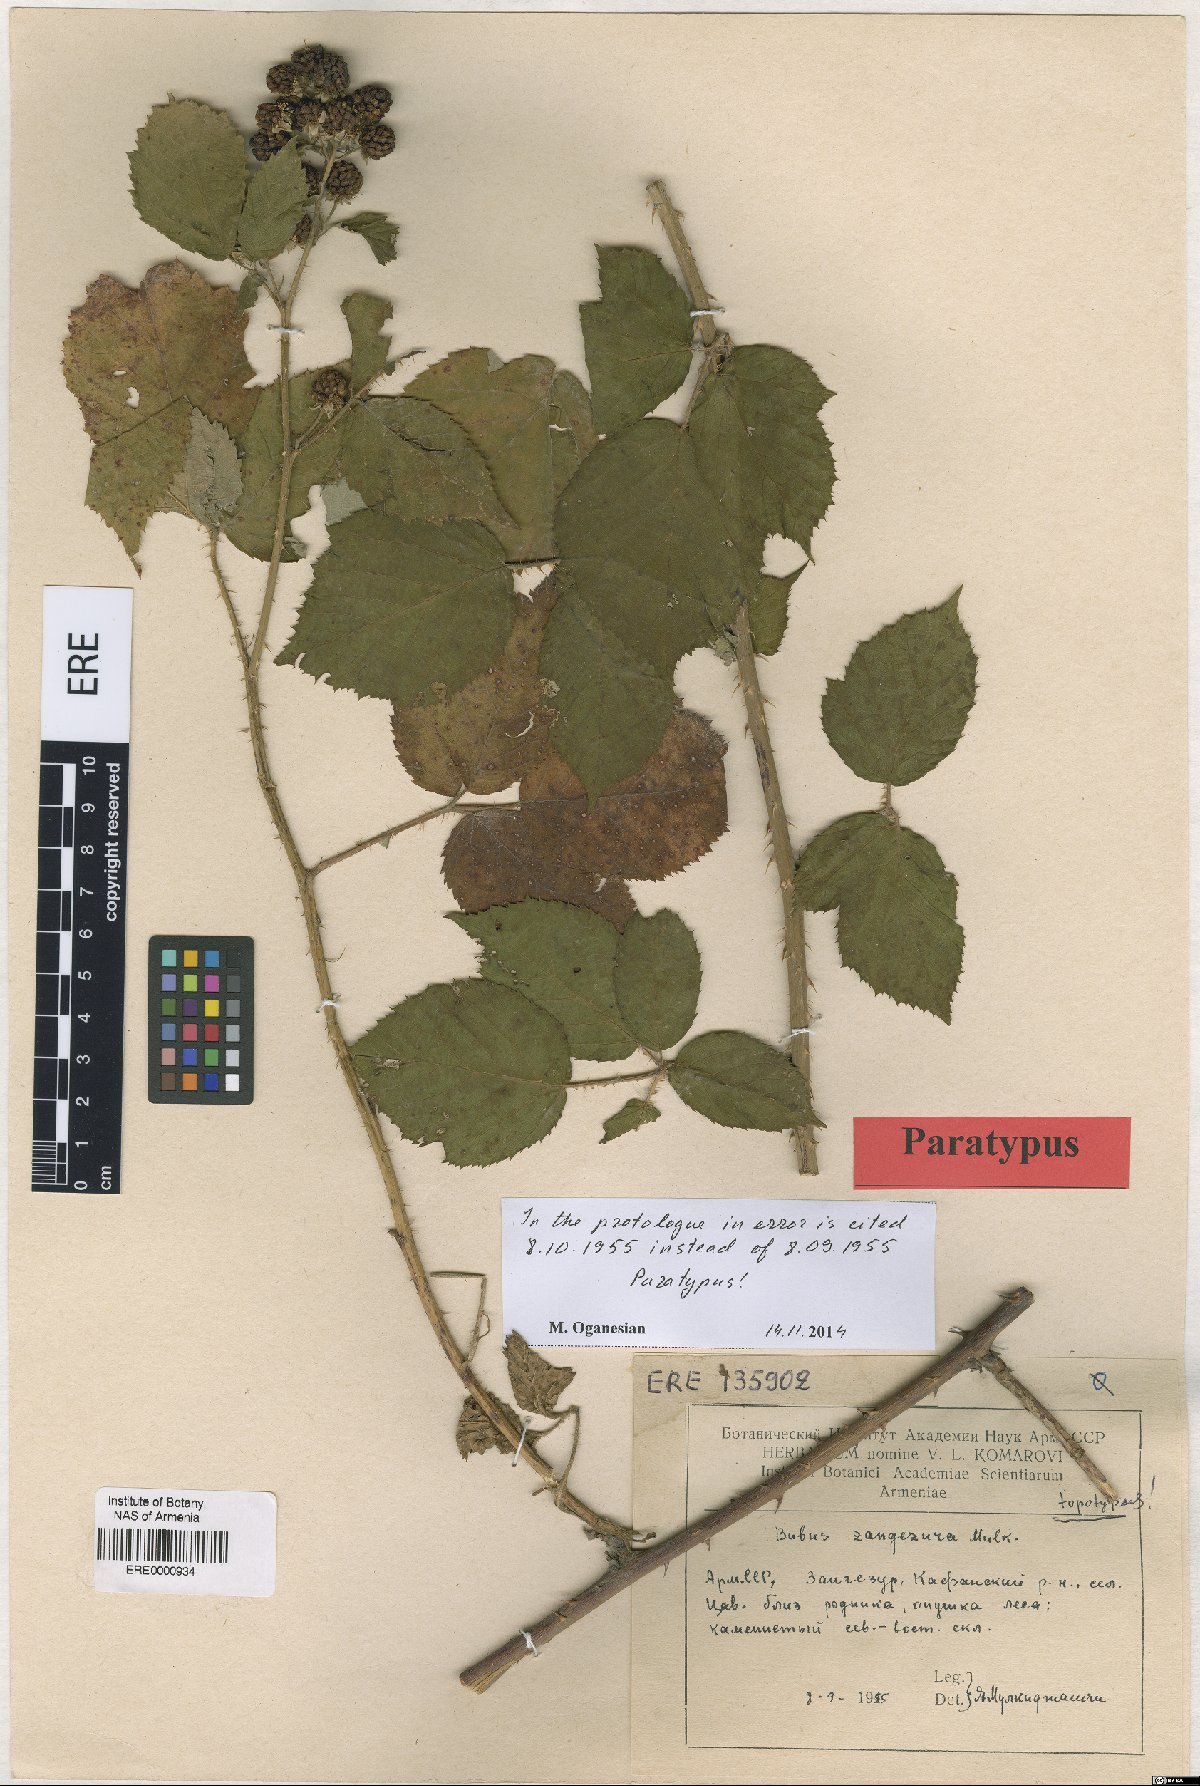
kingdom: Plantae
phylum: Tracheophyta
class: Magnoliopsida
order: Rosales
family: Rosaceae
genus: Rubus
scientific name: Rubus zangezurus
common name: Zangezurian blackberry
